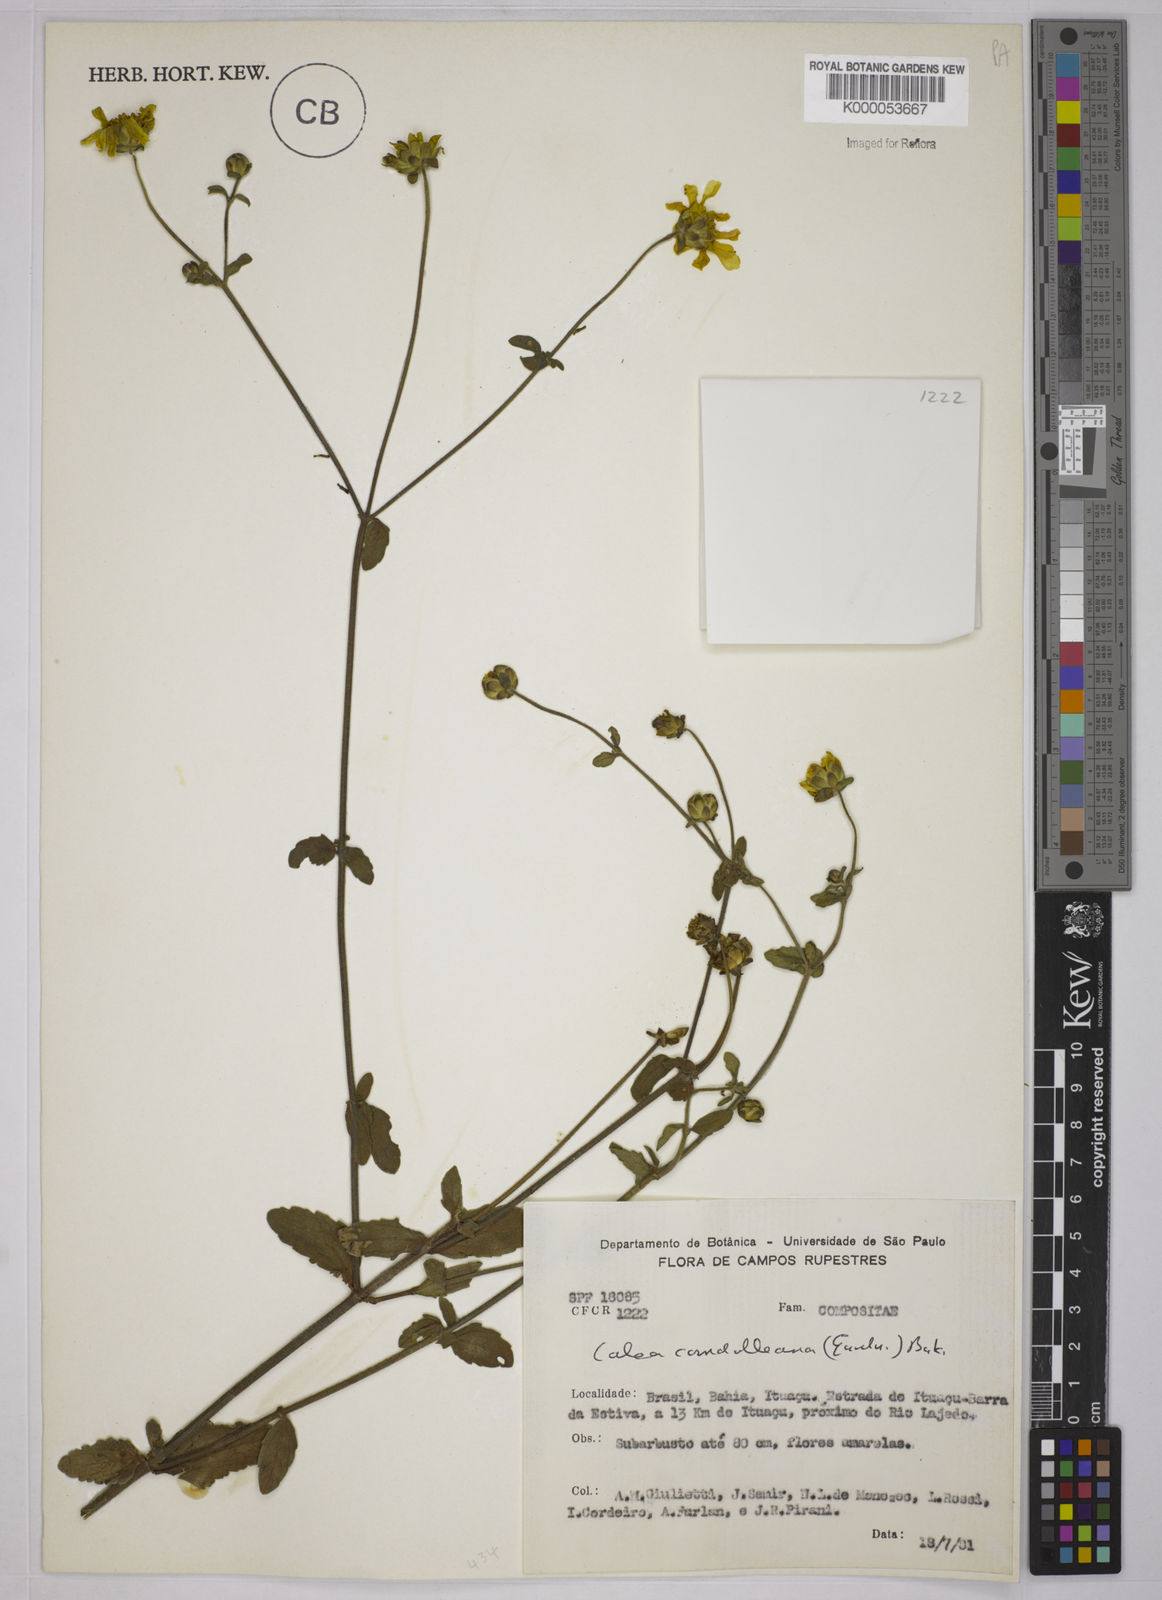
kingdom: Plantae
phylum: Tracheophyta
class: Magnoliopsida
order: Asterales
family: Asteraceae
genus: Calea
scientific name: Calea candolleana
